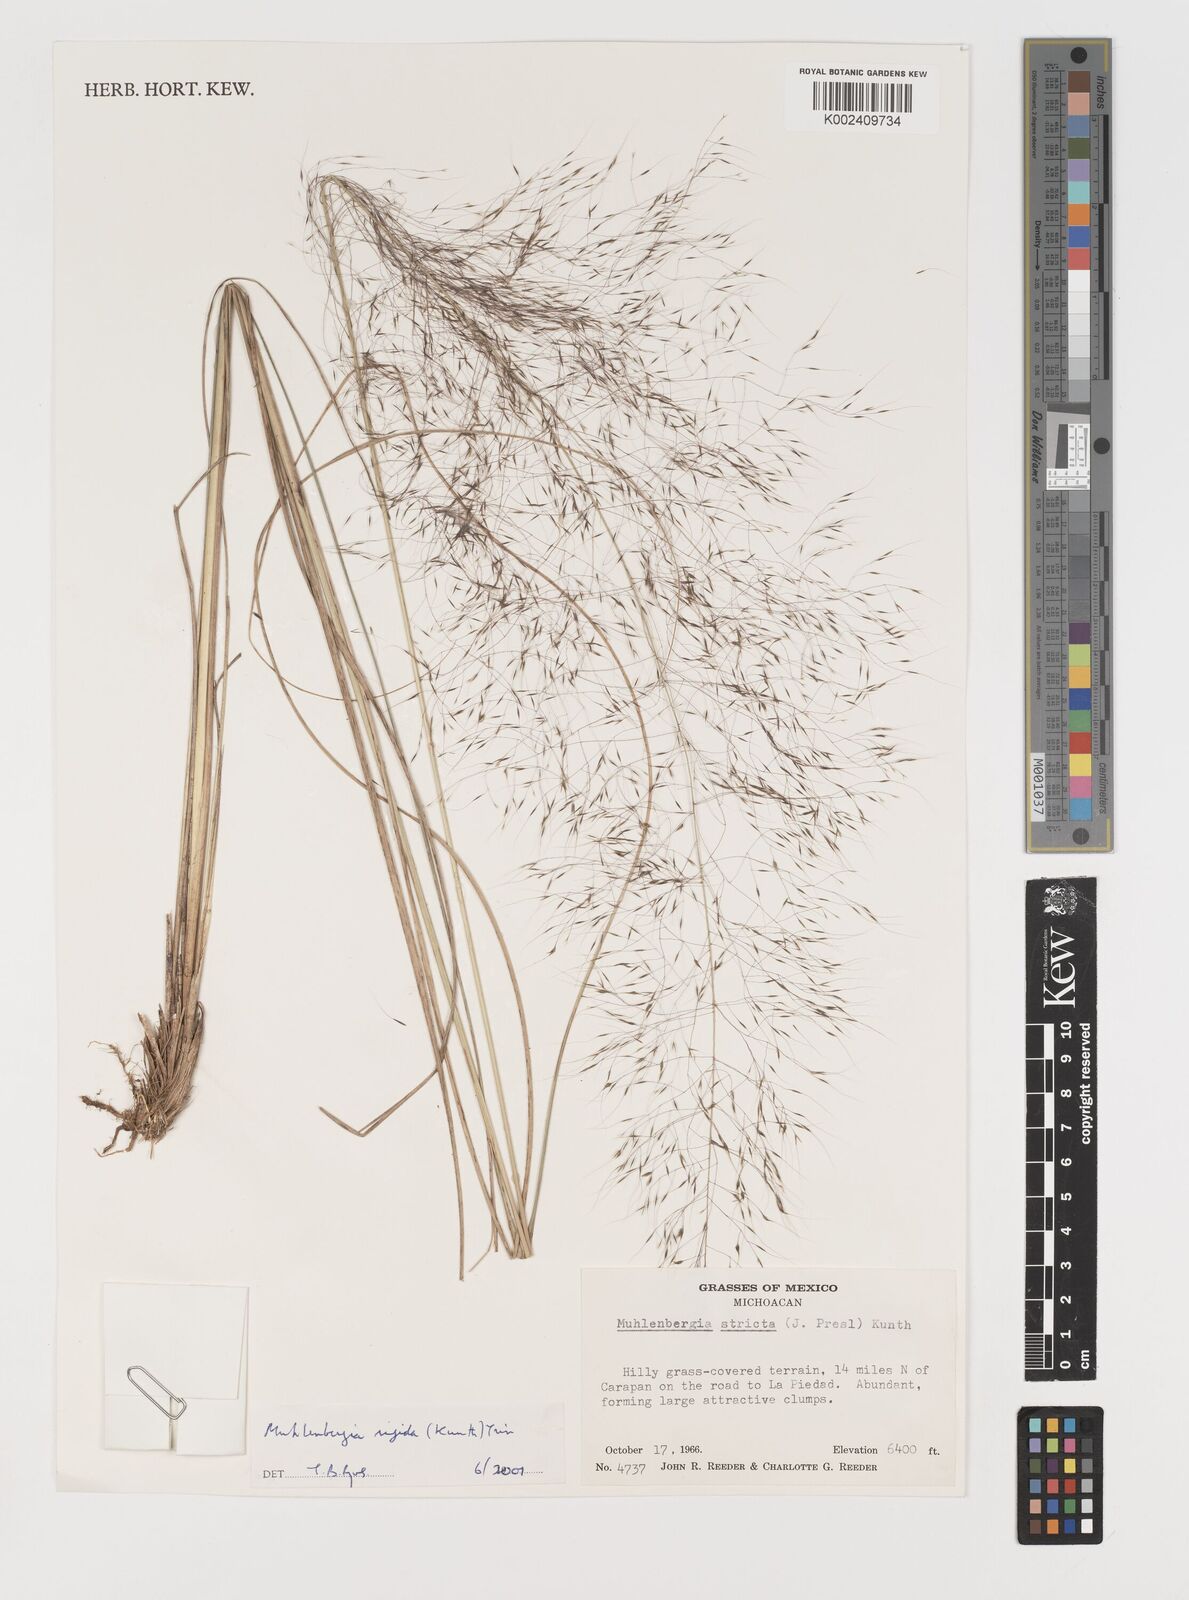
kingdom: Plantae
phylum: Tracheophyta
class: Liliopsida
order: Poales
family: Poaceae
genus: Muhlenbergia
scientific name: Muhlenbergia rigida
